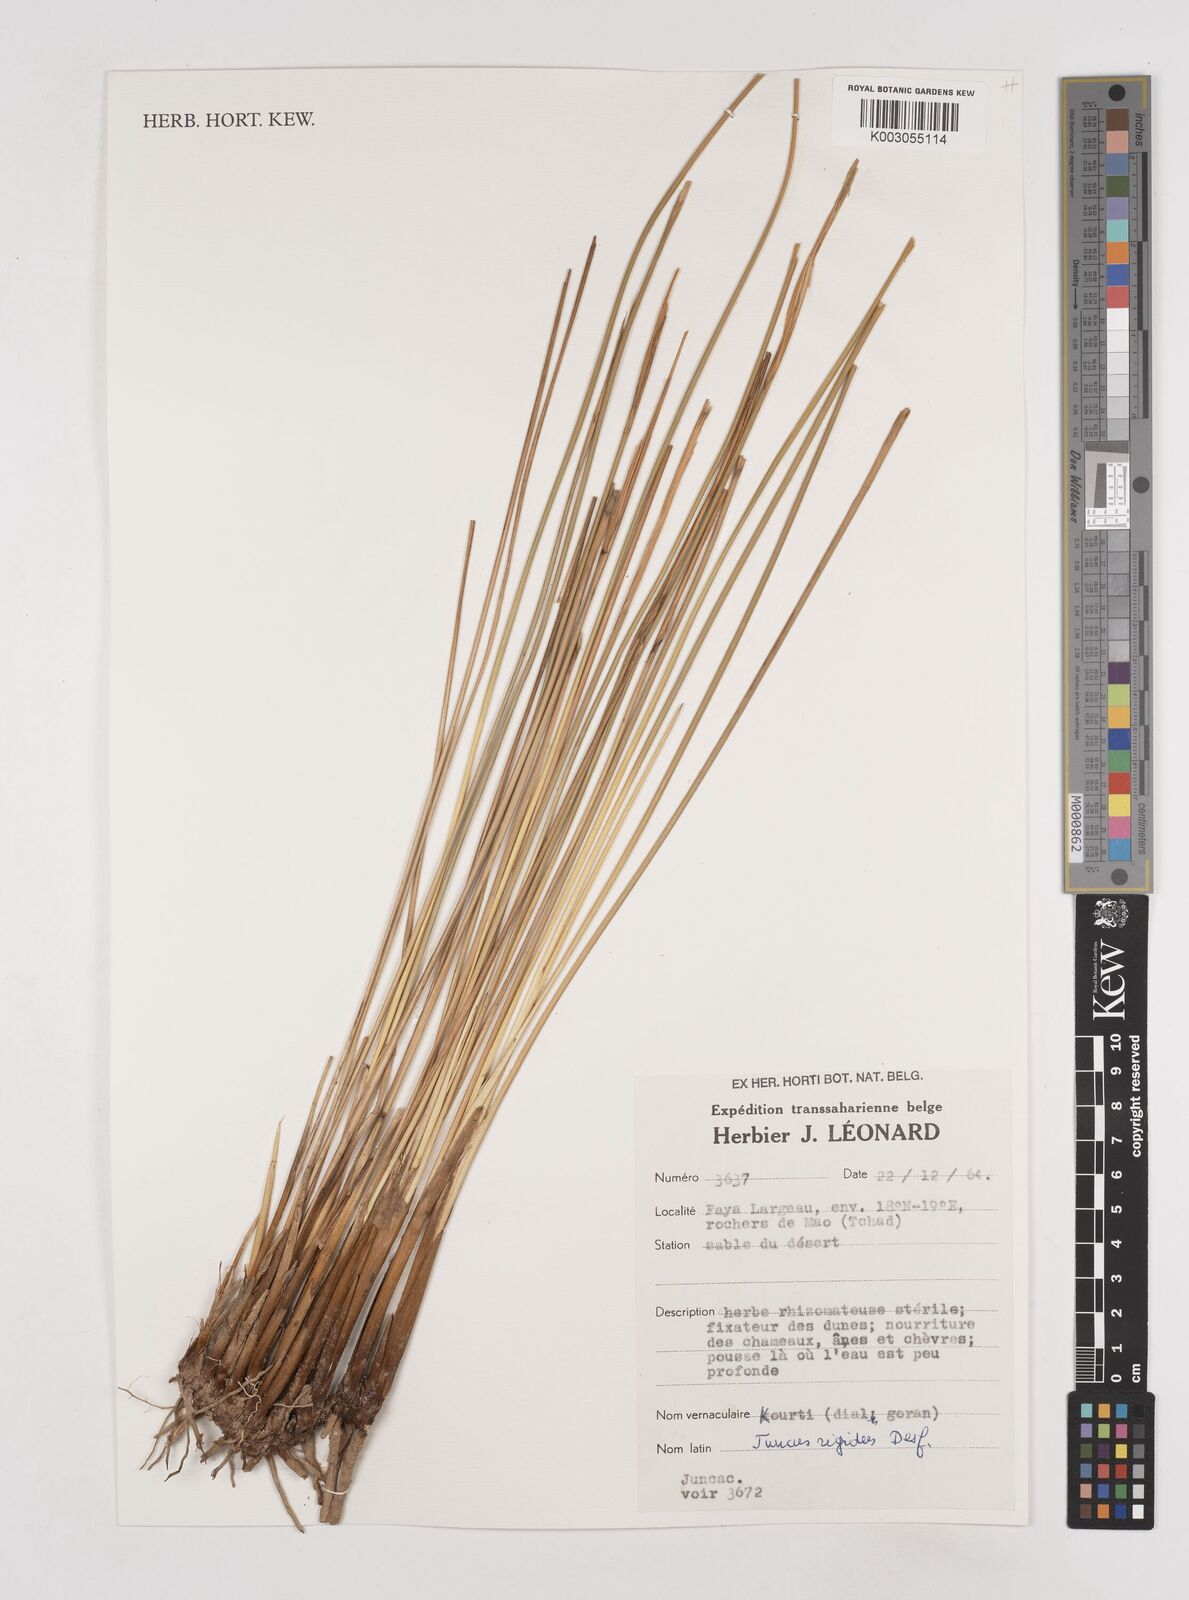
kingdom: Plantae
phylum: Tracheophyta
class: Liliopsida
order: Poales
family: Juncaceae
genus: Juncus
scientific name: Juncus rigidus
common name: Hard sea rush
